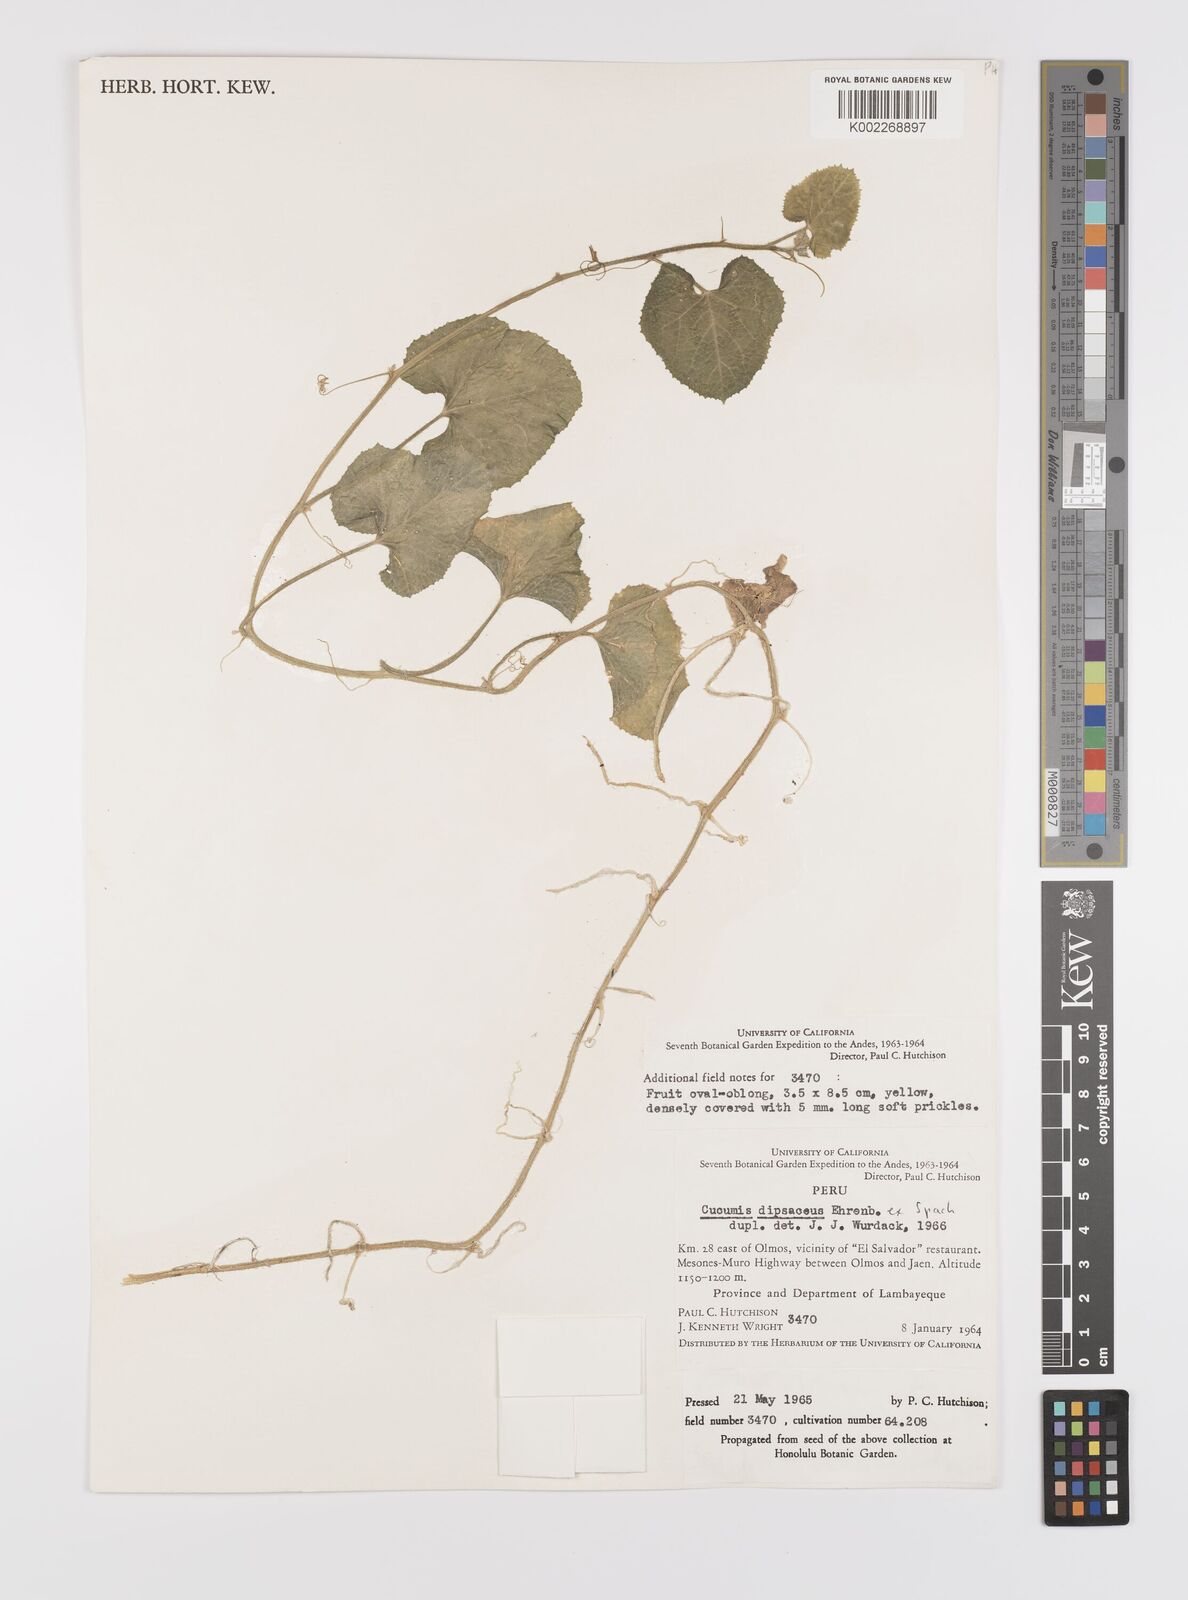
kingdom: Plantae
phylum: Tracheophyta
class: Magnoliopsida
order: Cucurbitales
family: Cucurbitaceae
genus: Cucumis
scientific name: Cucumis
